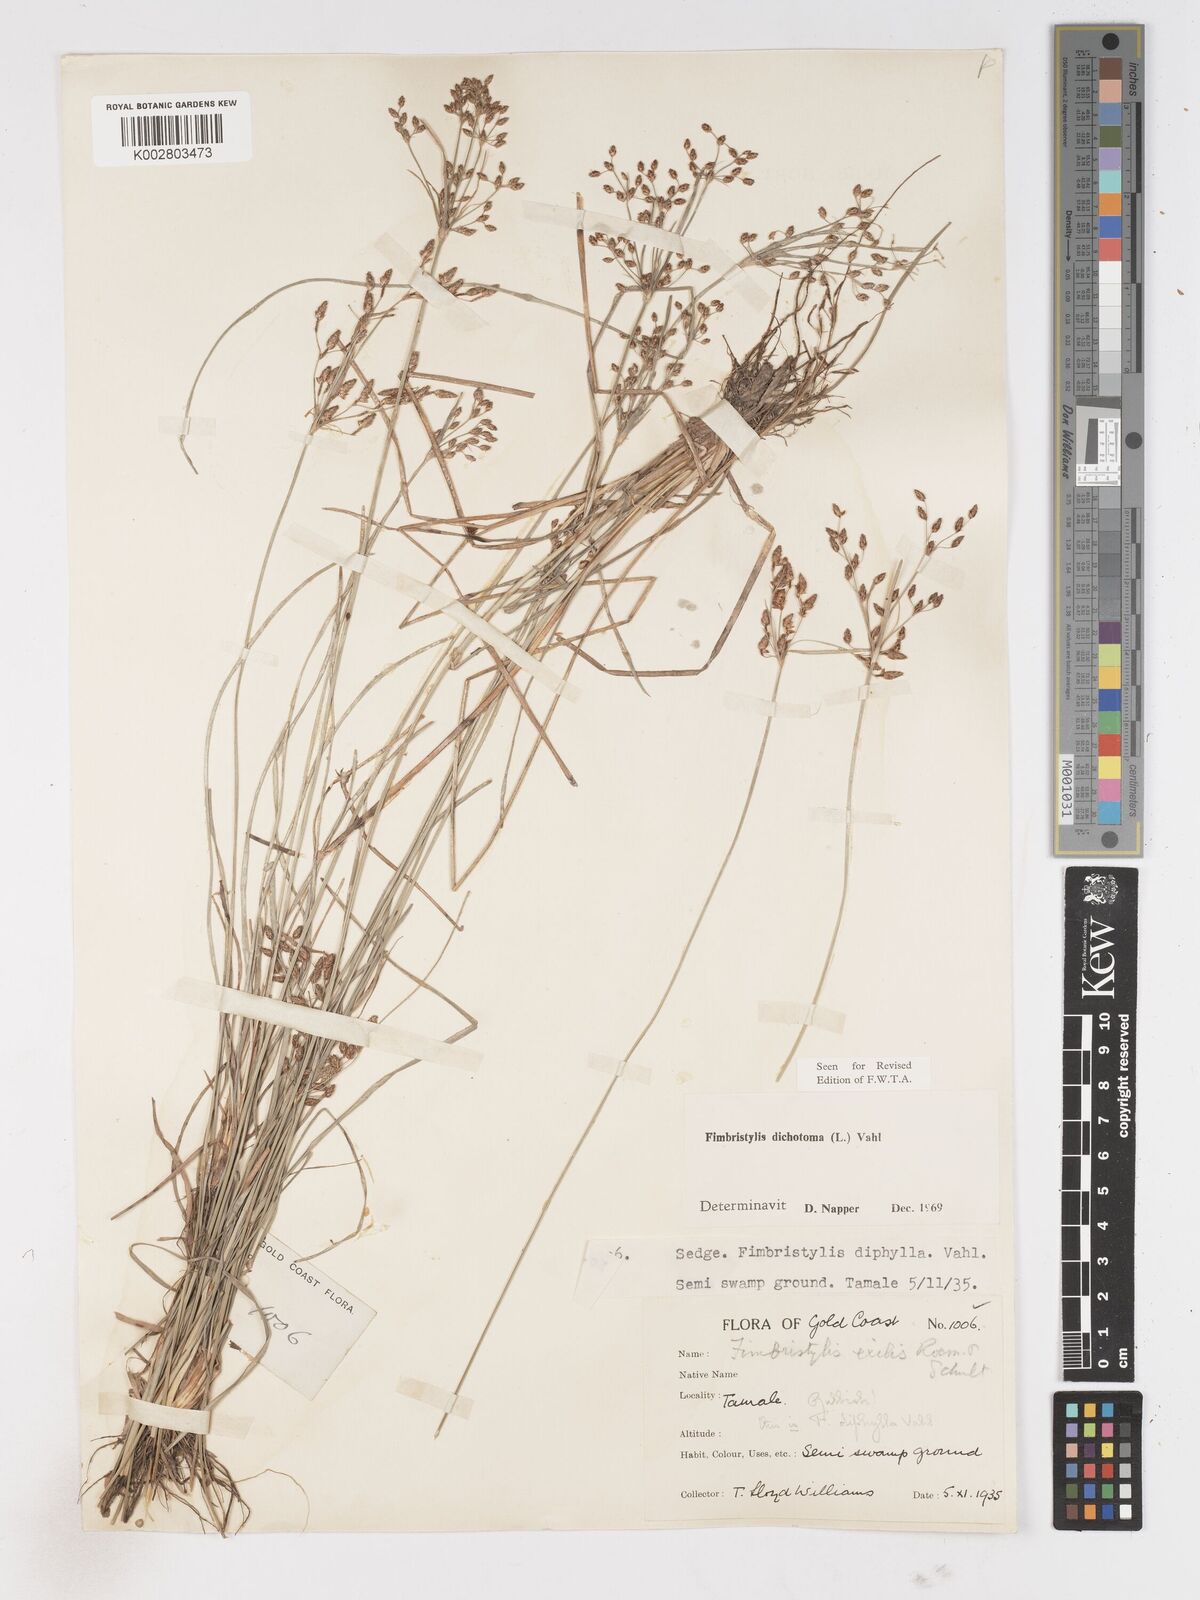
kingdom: Plantae
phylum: Tracheophyta
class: Liliopsida
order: Poales
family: Cyperaceae
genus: Fimbristylis
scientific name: Fimbristylis dichotoma
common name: Forked fimbry
